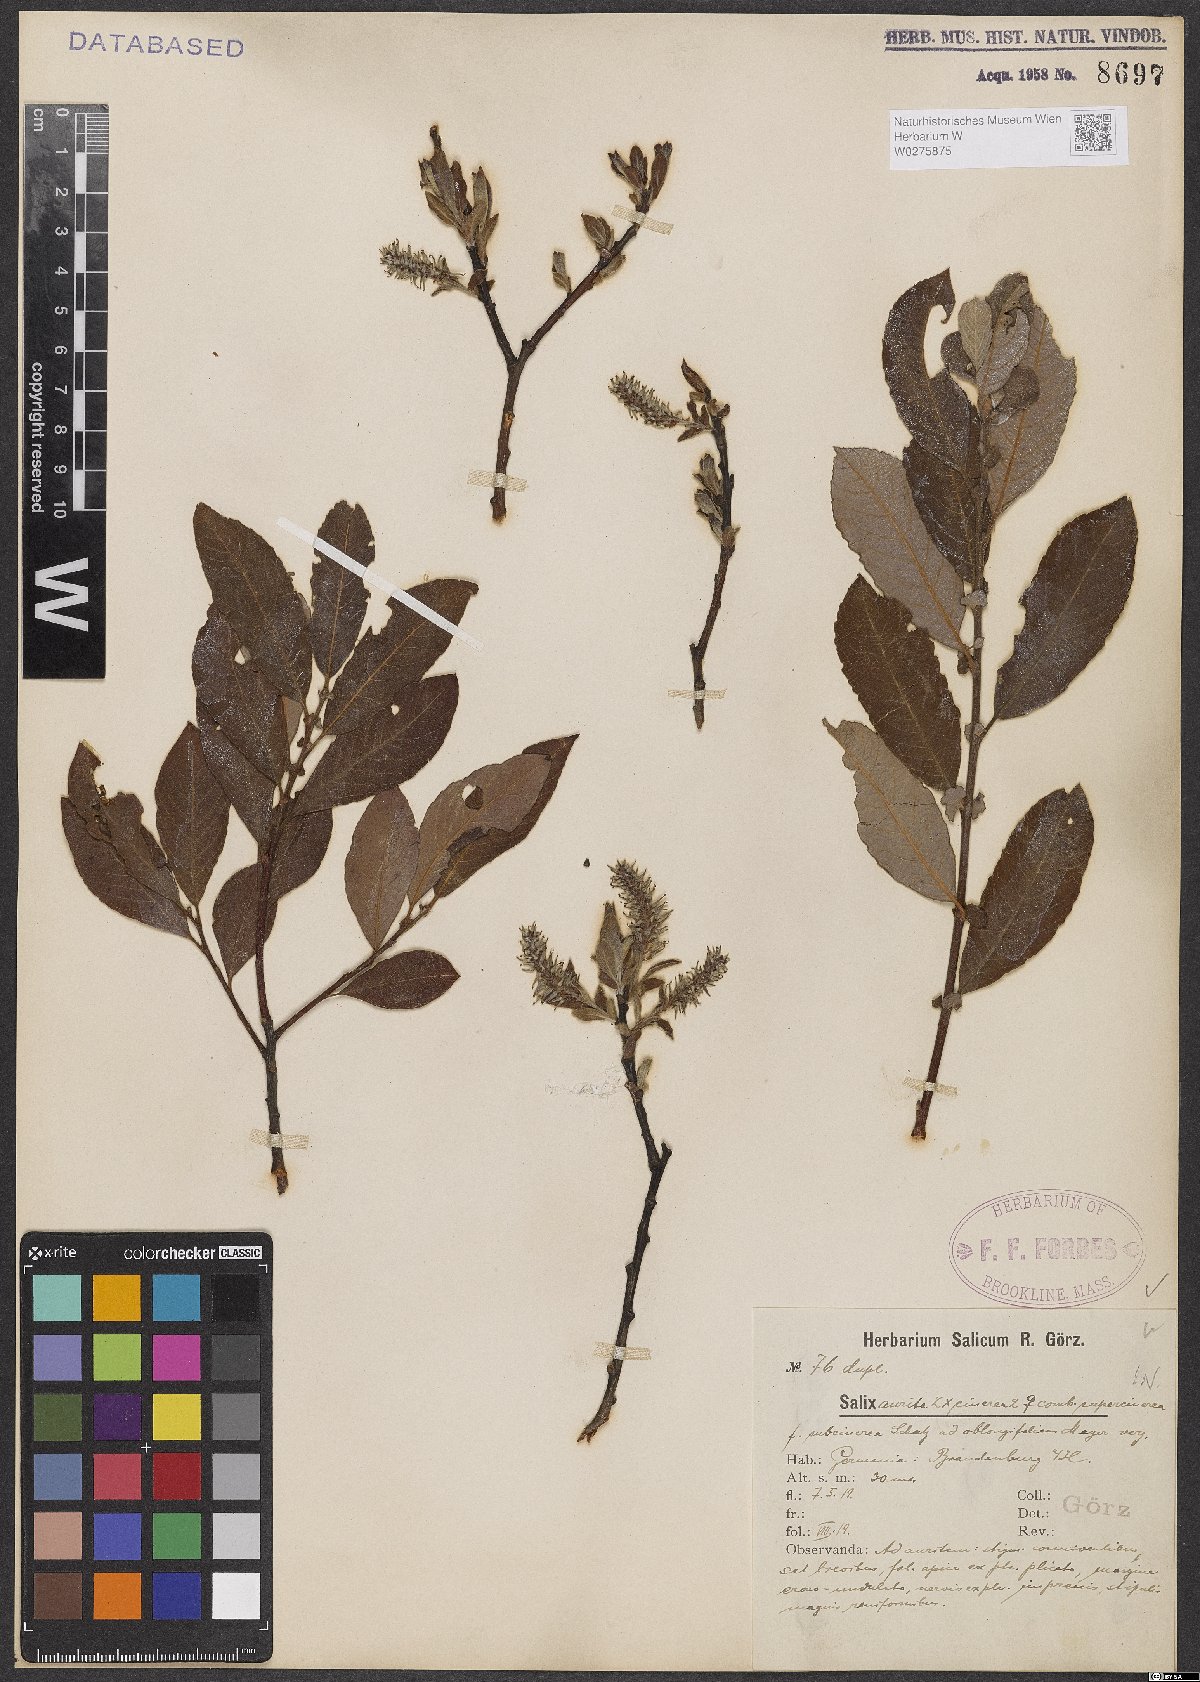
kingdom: Plantae
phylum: Tracheophyta
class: Magnoliopsida
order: Malpighiales
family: Salicaceae
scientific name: Salicaceae
